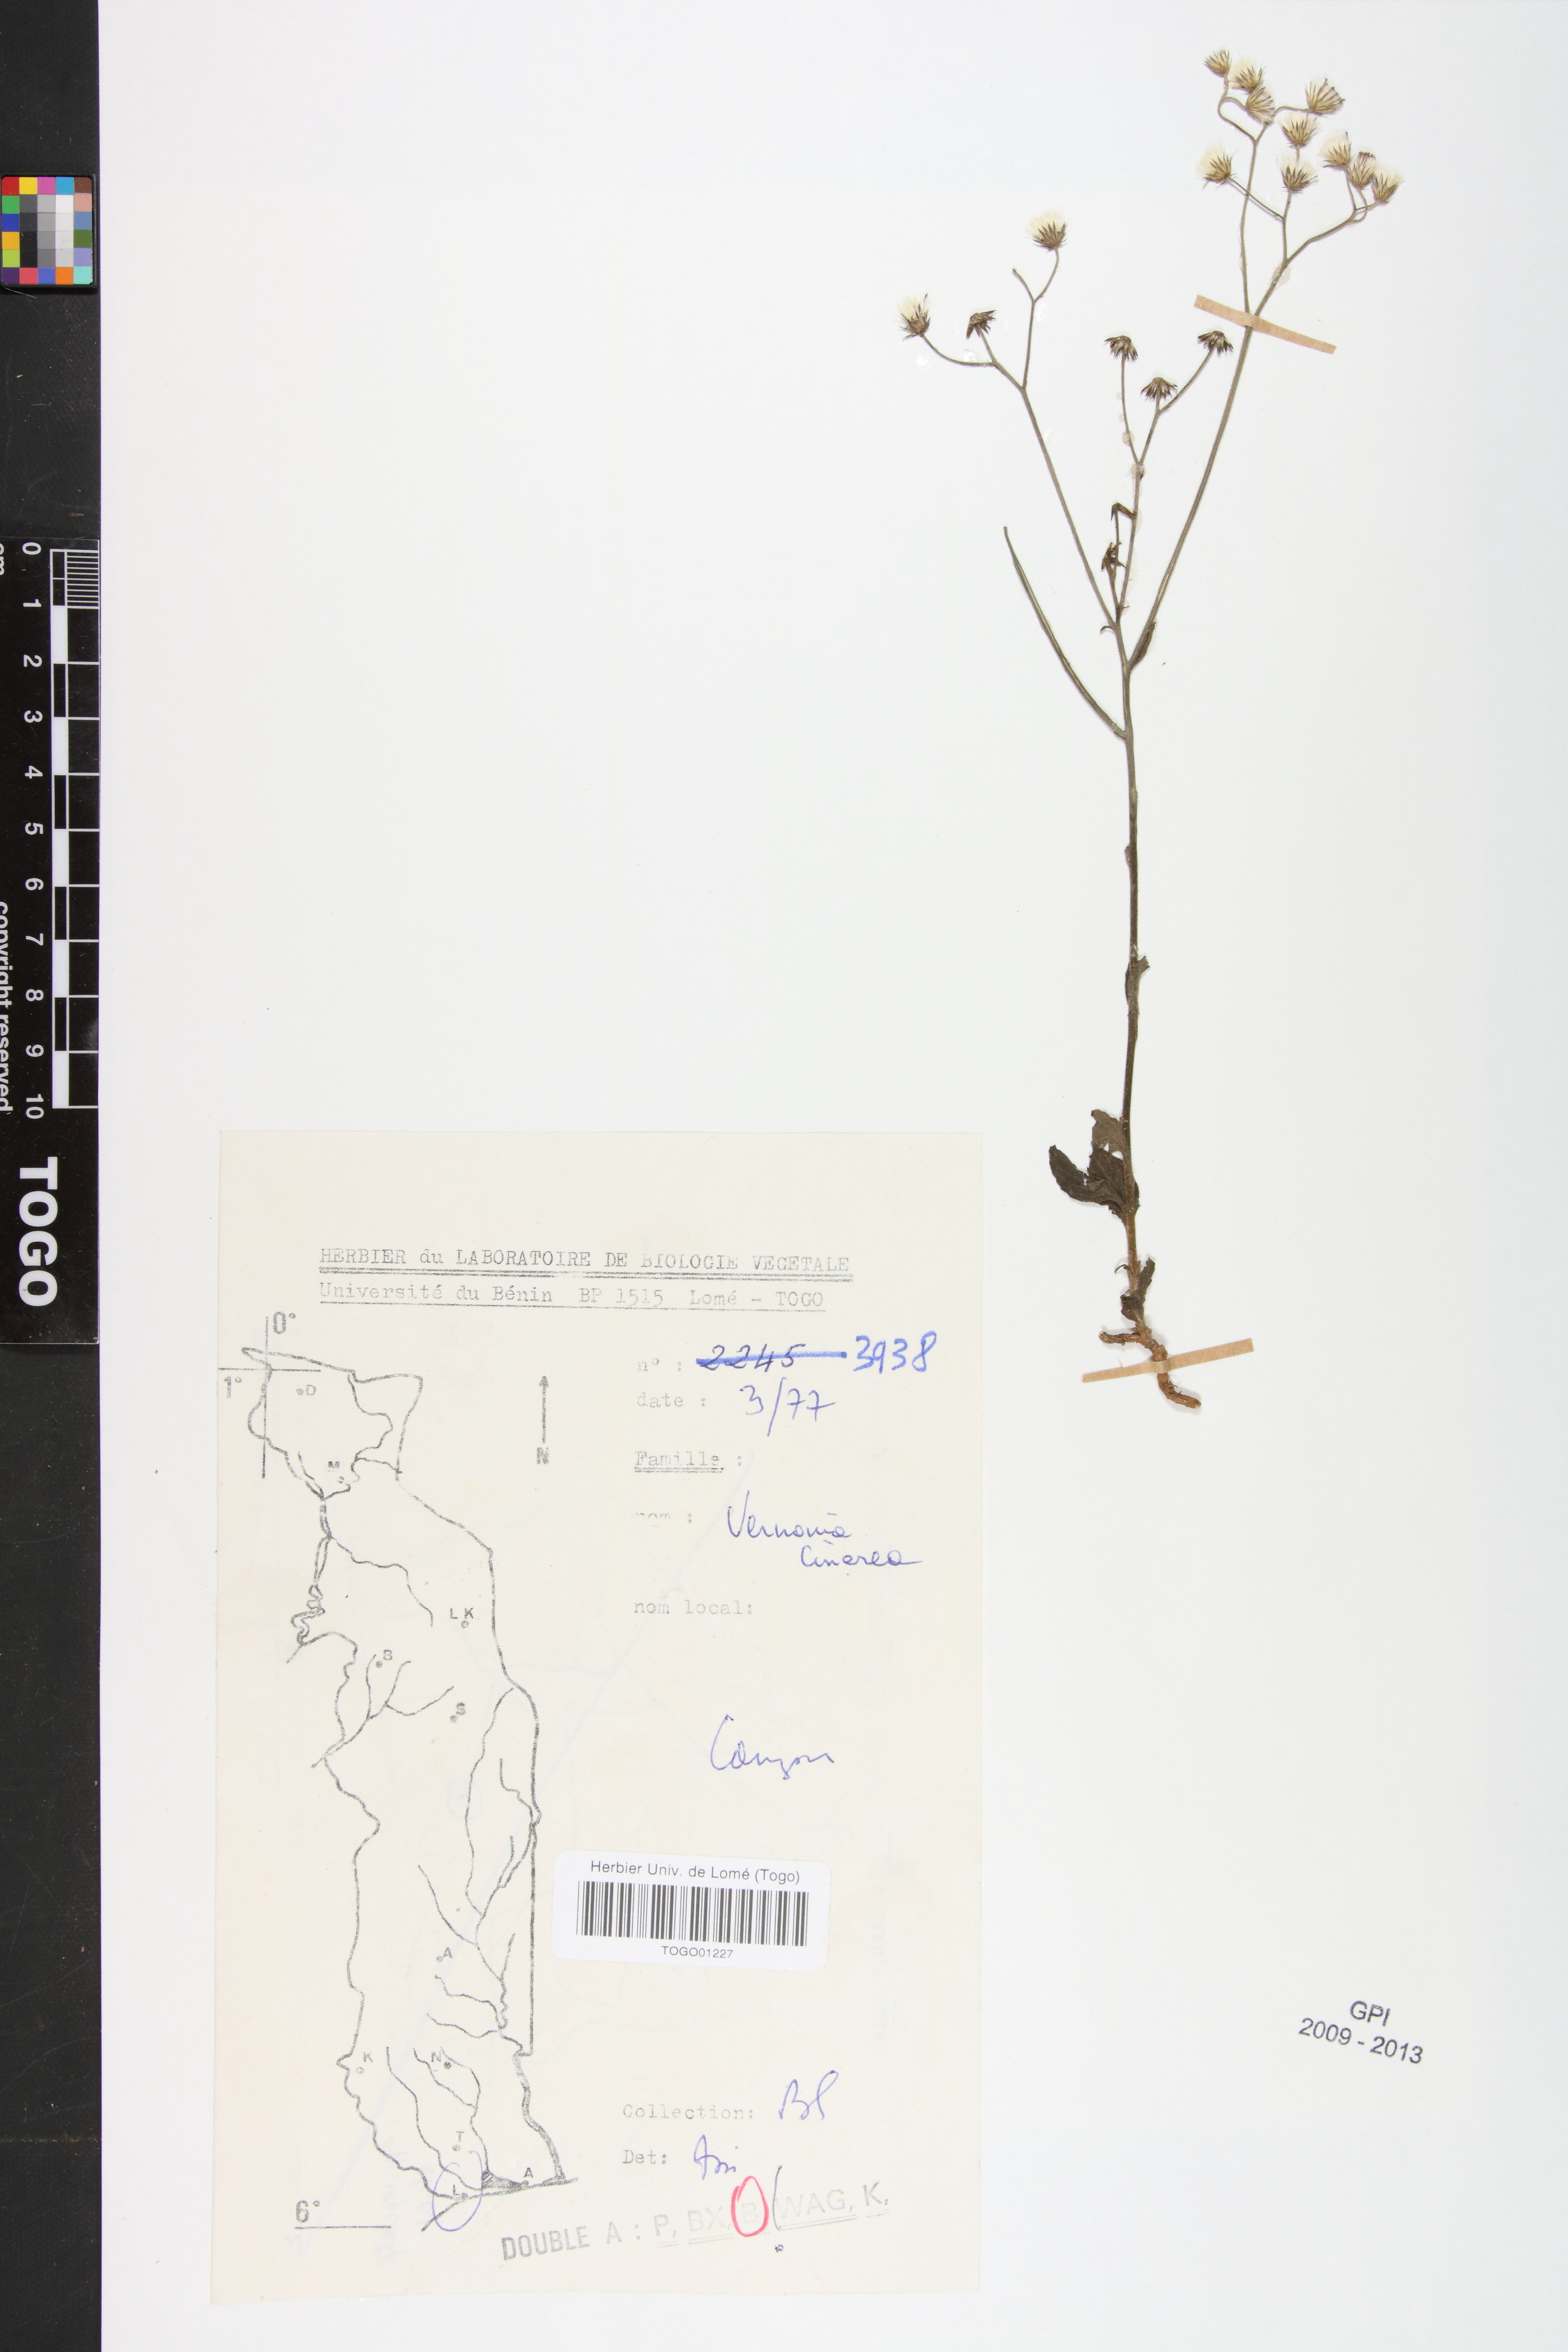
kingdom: Plantae
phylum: Tracheophyta
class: Magnoliopsida
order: Asterales
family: Asteraceae
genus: Cyanthillium
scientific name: Cyanthillium cinereum
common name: Little ironweed
